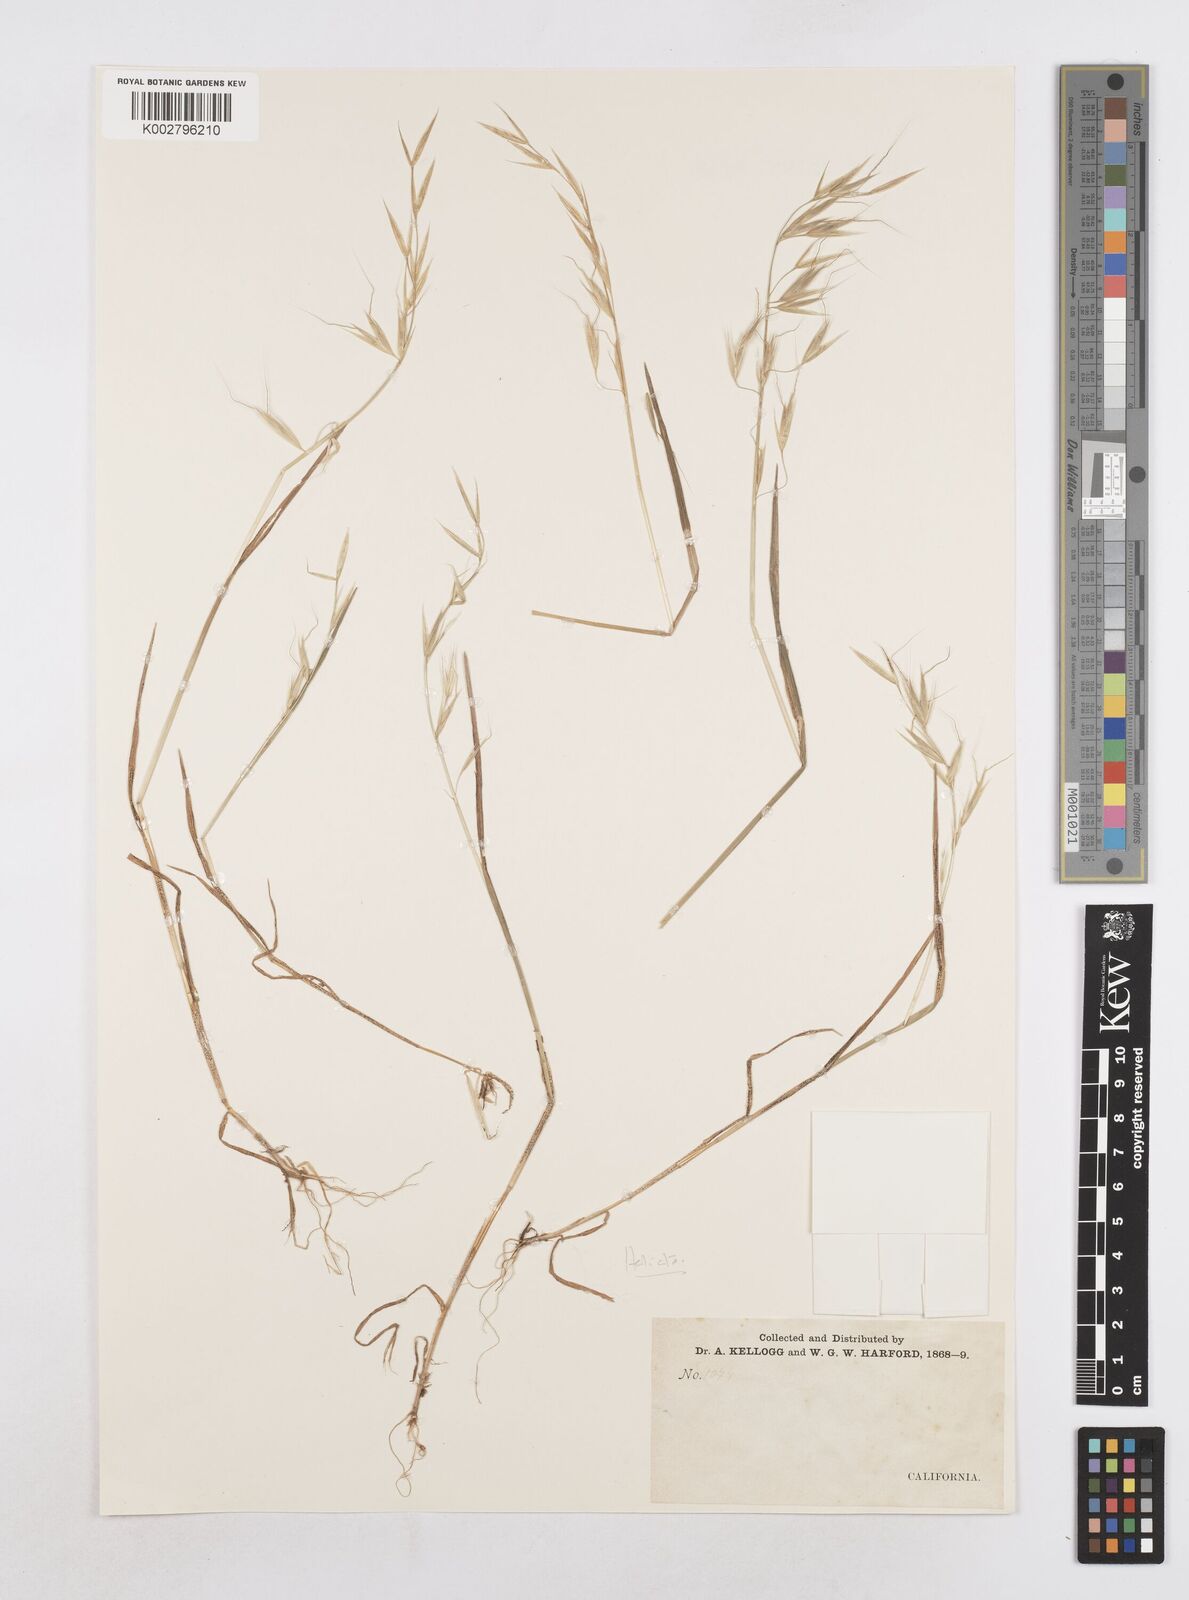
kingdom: Plantae
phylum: Tracheophyta
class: Liliopsida
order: Poales
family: Poaceae
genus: Helictotrichon
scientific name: Helictotrichon
